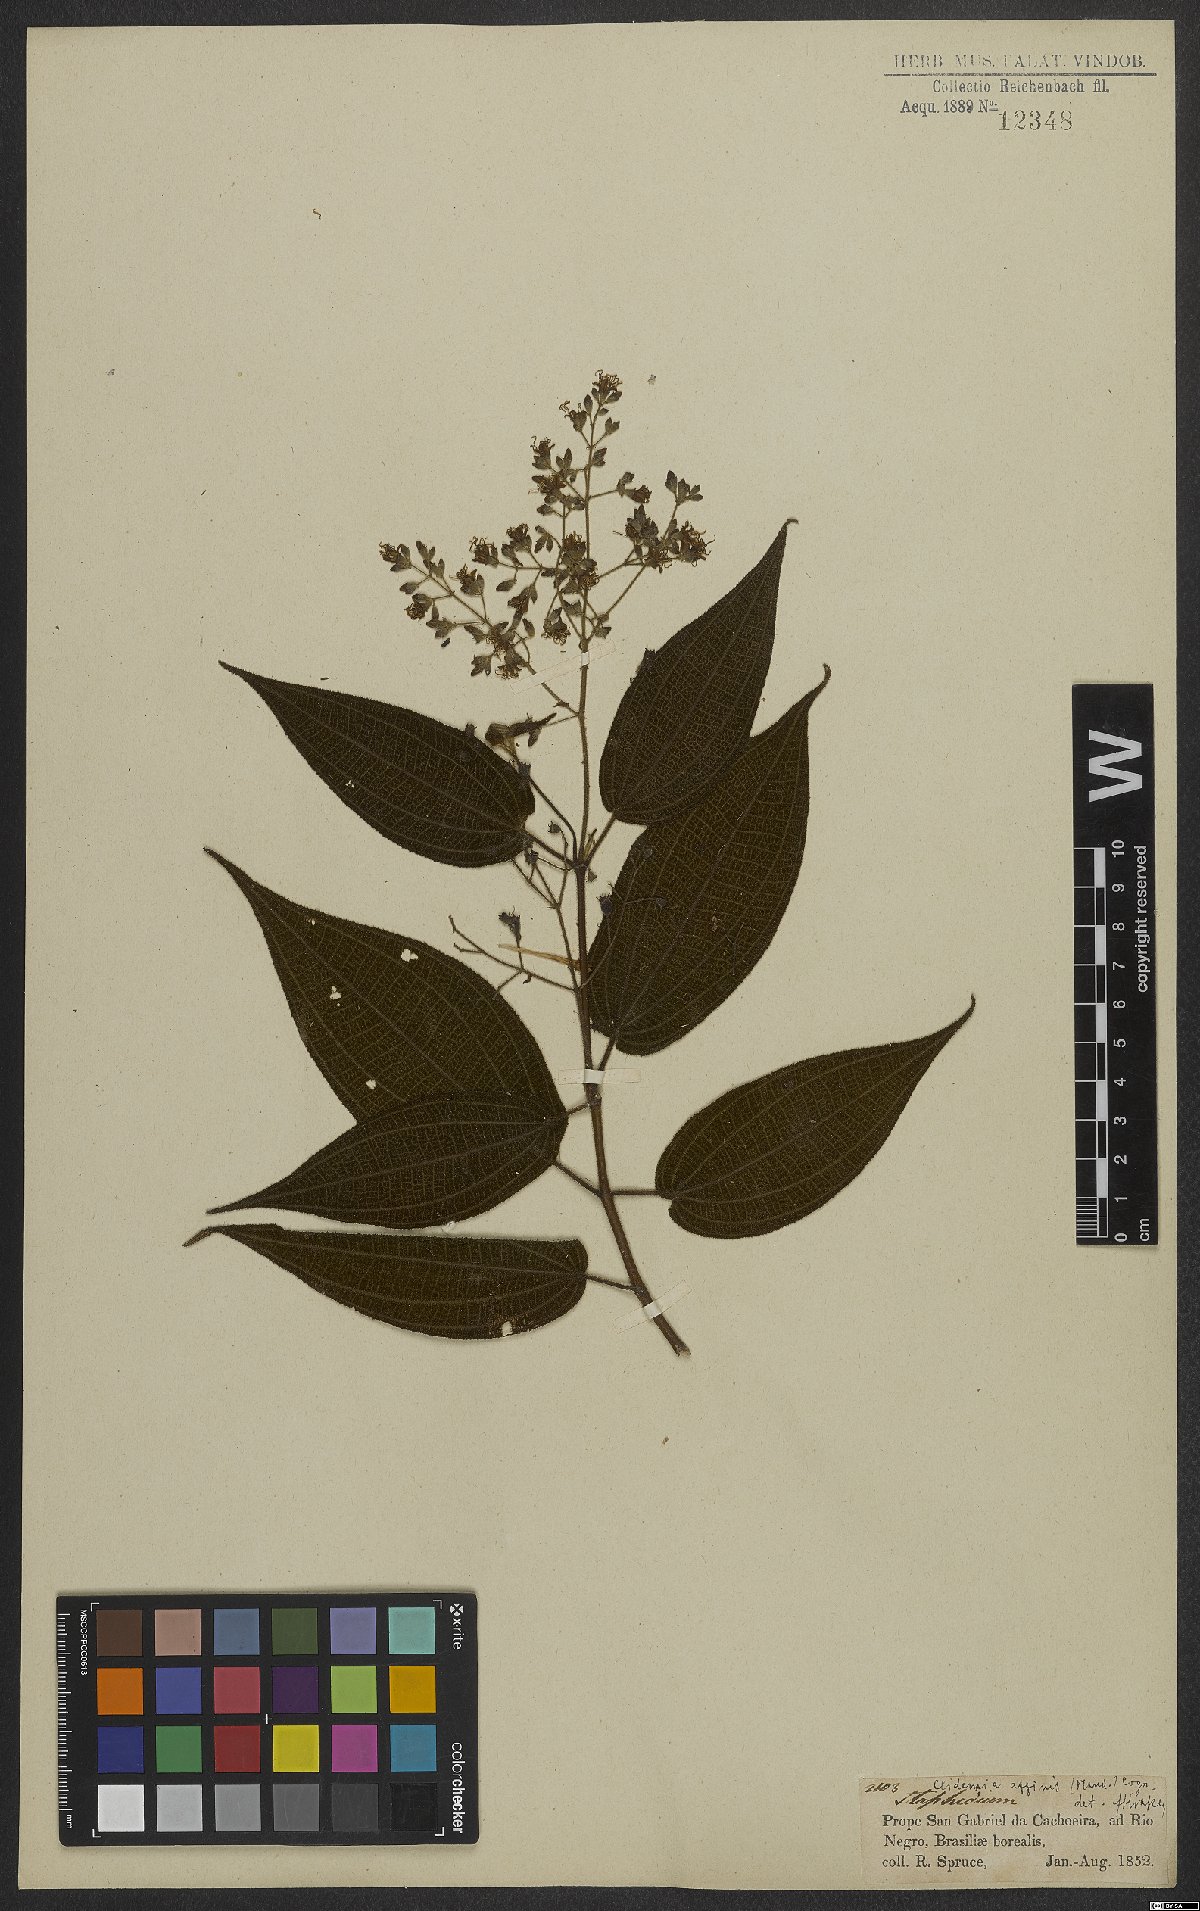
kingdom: Plantae
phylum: Tracheophyta
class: Magnoliopsida
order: Myrtales
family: Melastomataceae
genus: Miconia
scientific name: Miconia bullatifolia
